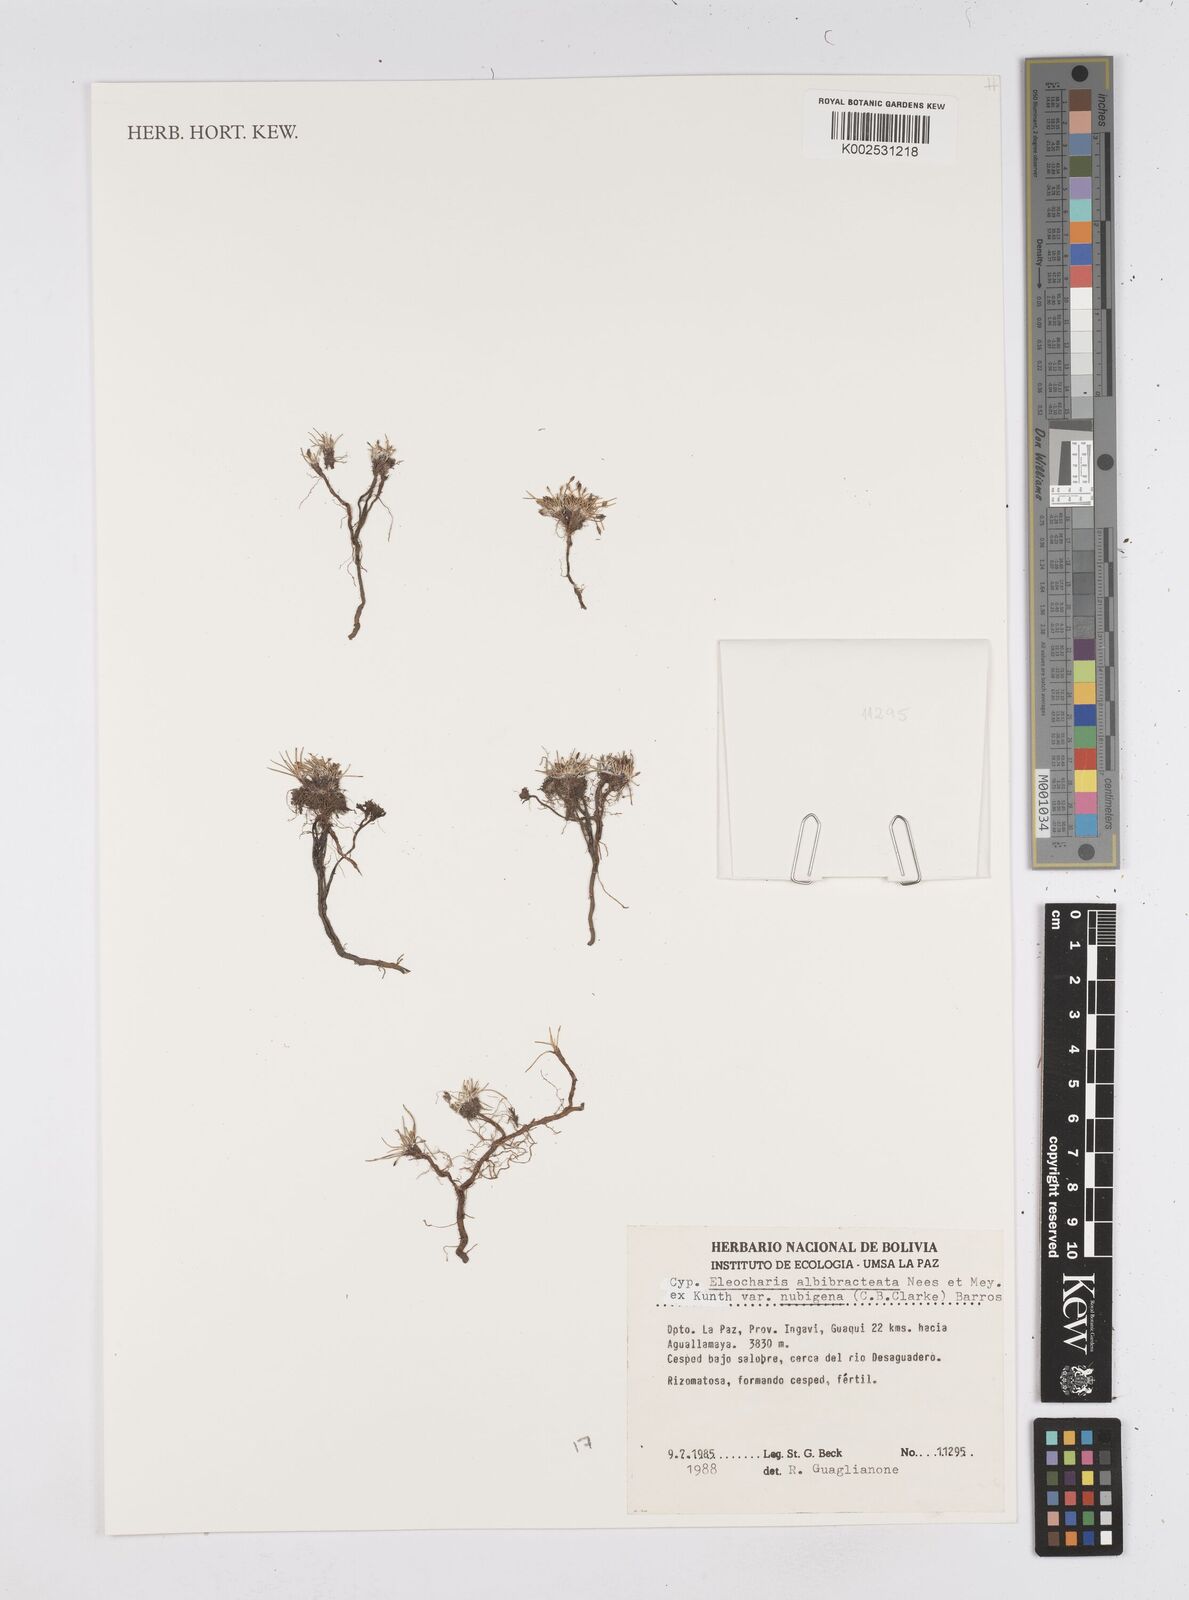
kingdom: Plantae
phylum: Tracheophyta
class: Liliopsida
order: Poales
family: Cyperaceae
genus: Eleocharis
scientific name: Eleocharis albibracteata
